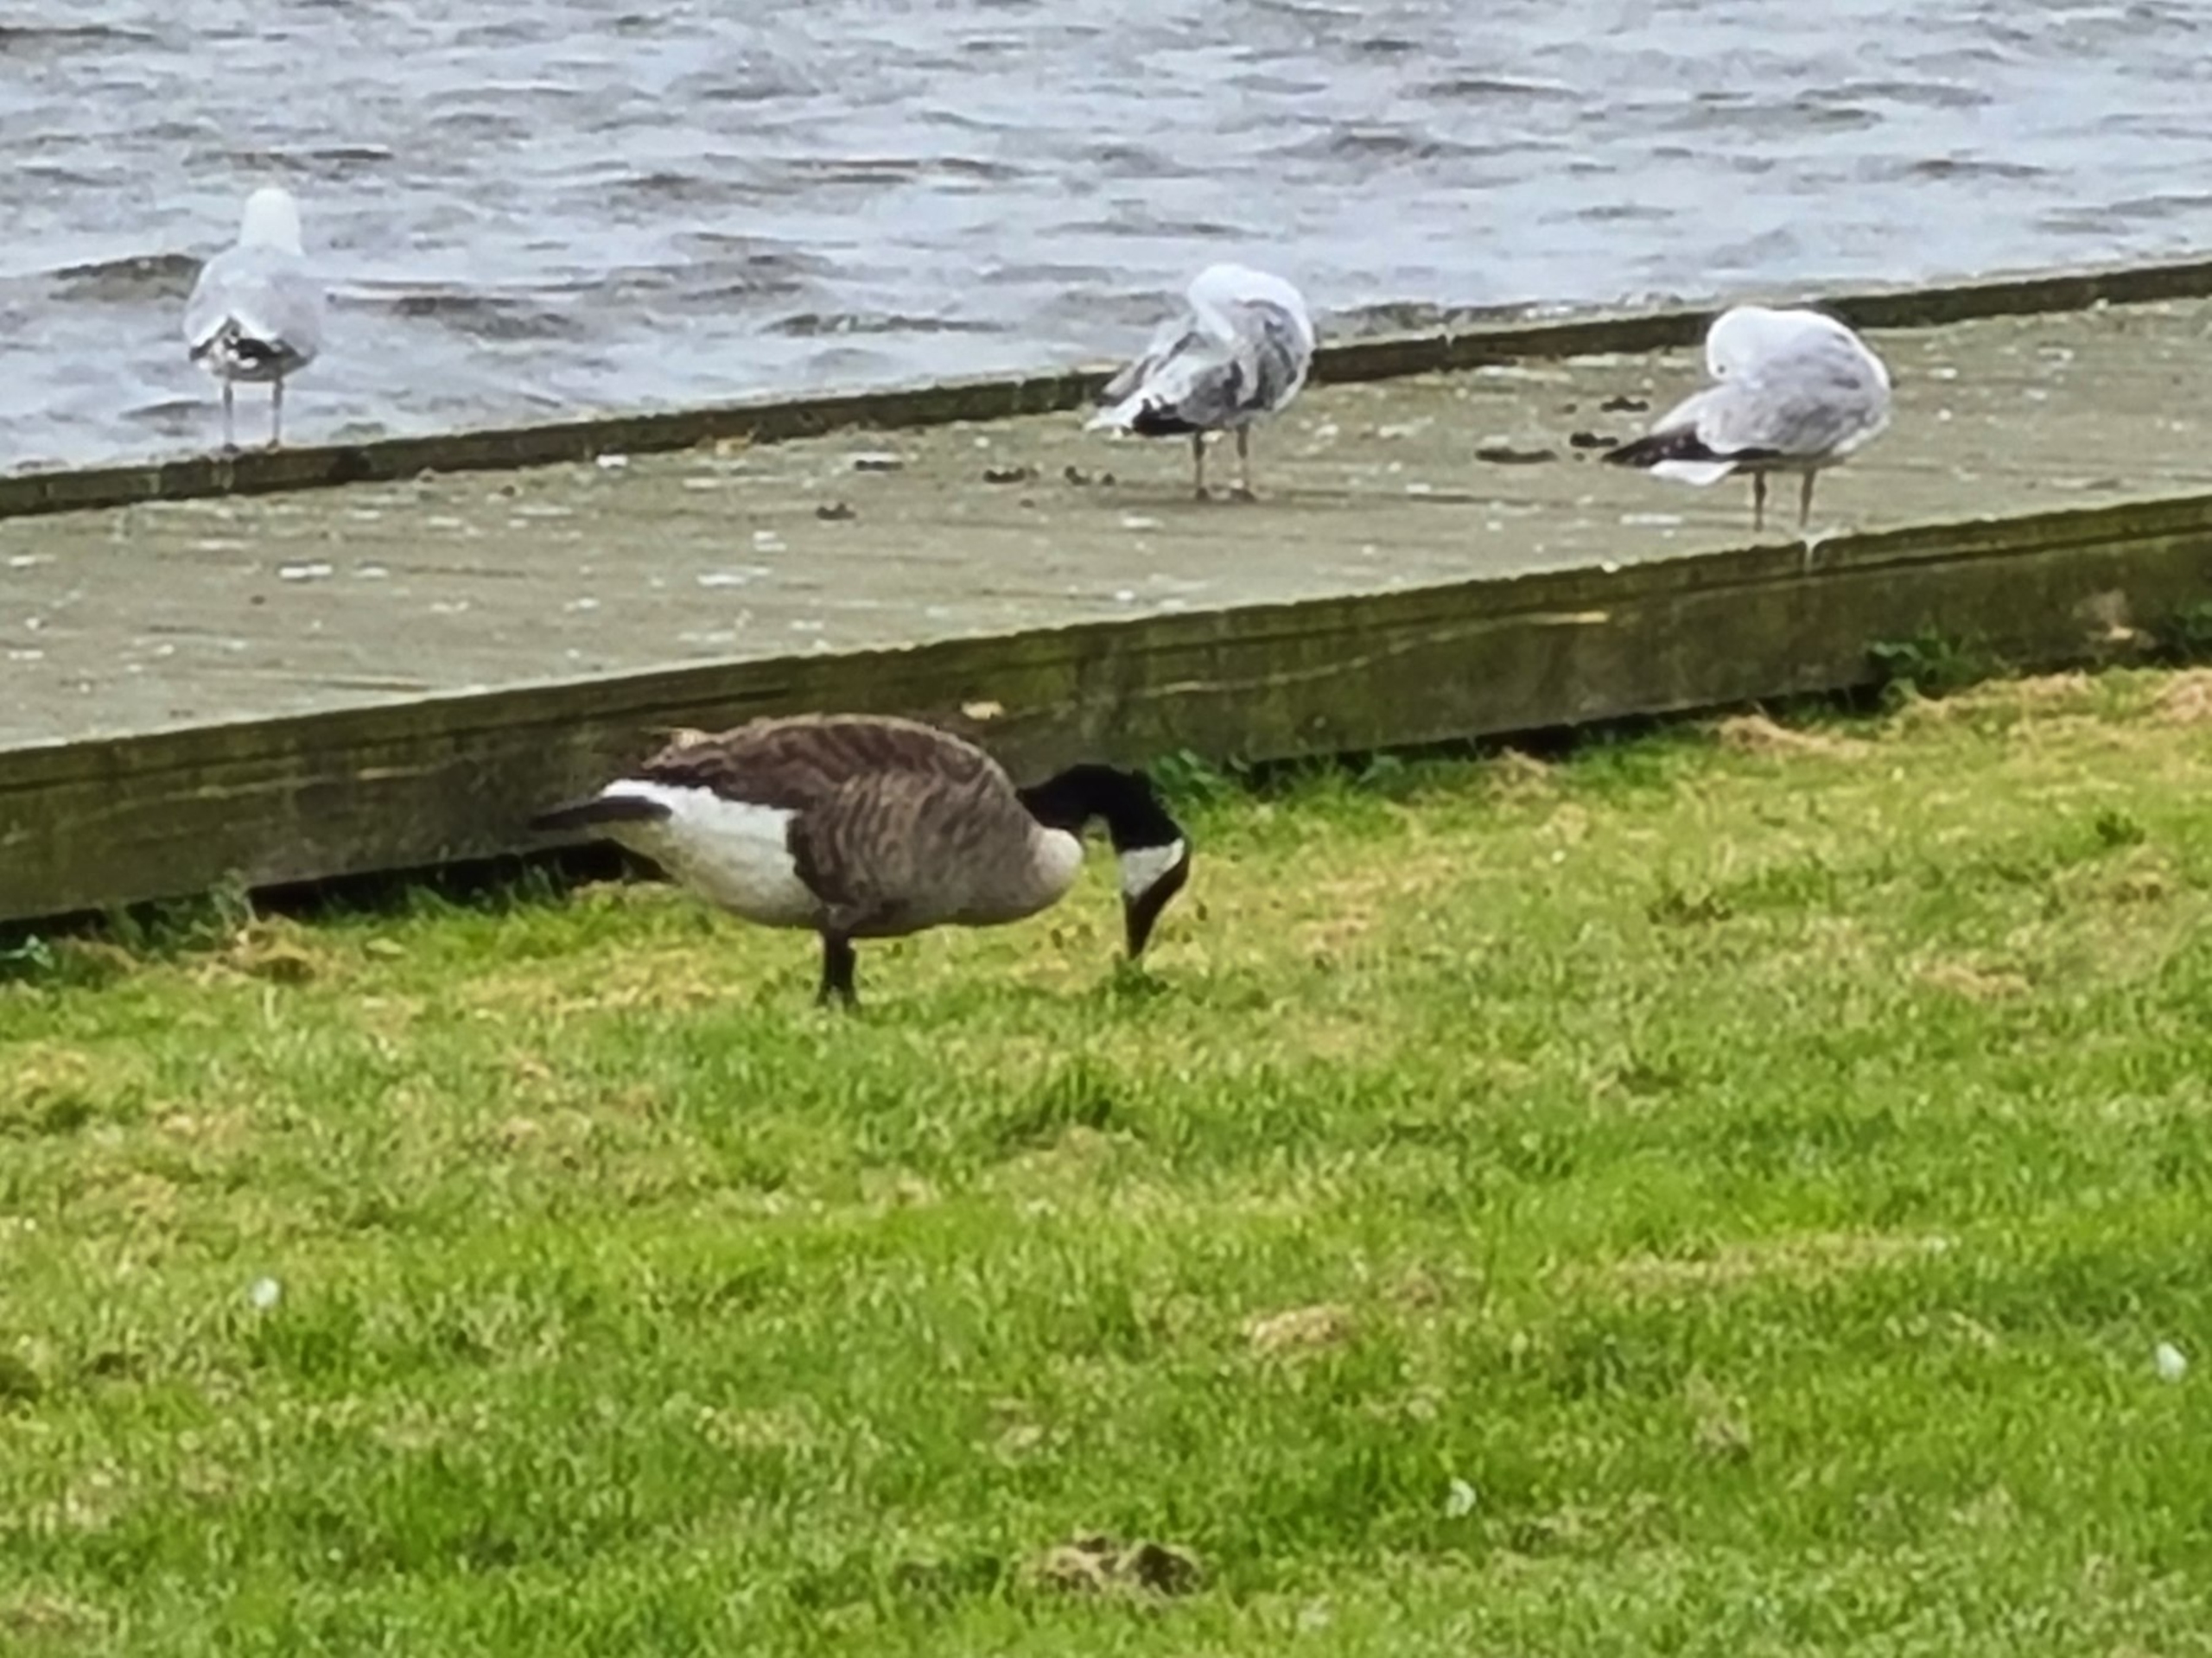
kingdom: Animalia
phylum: Chordata
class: Aves
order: Anseriformes
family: Anatidae
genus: Branta
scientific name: Branta canadensis
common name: Canadagås
